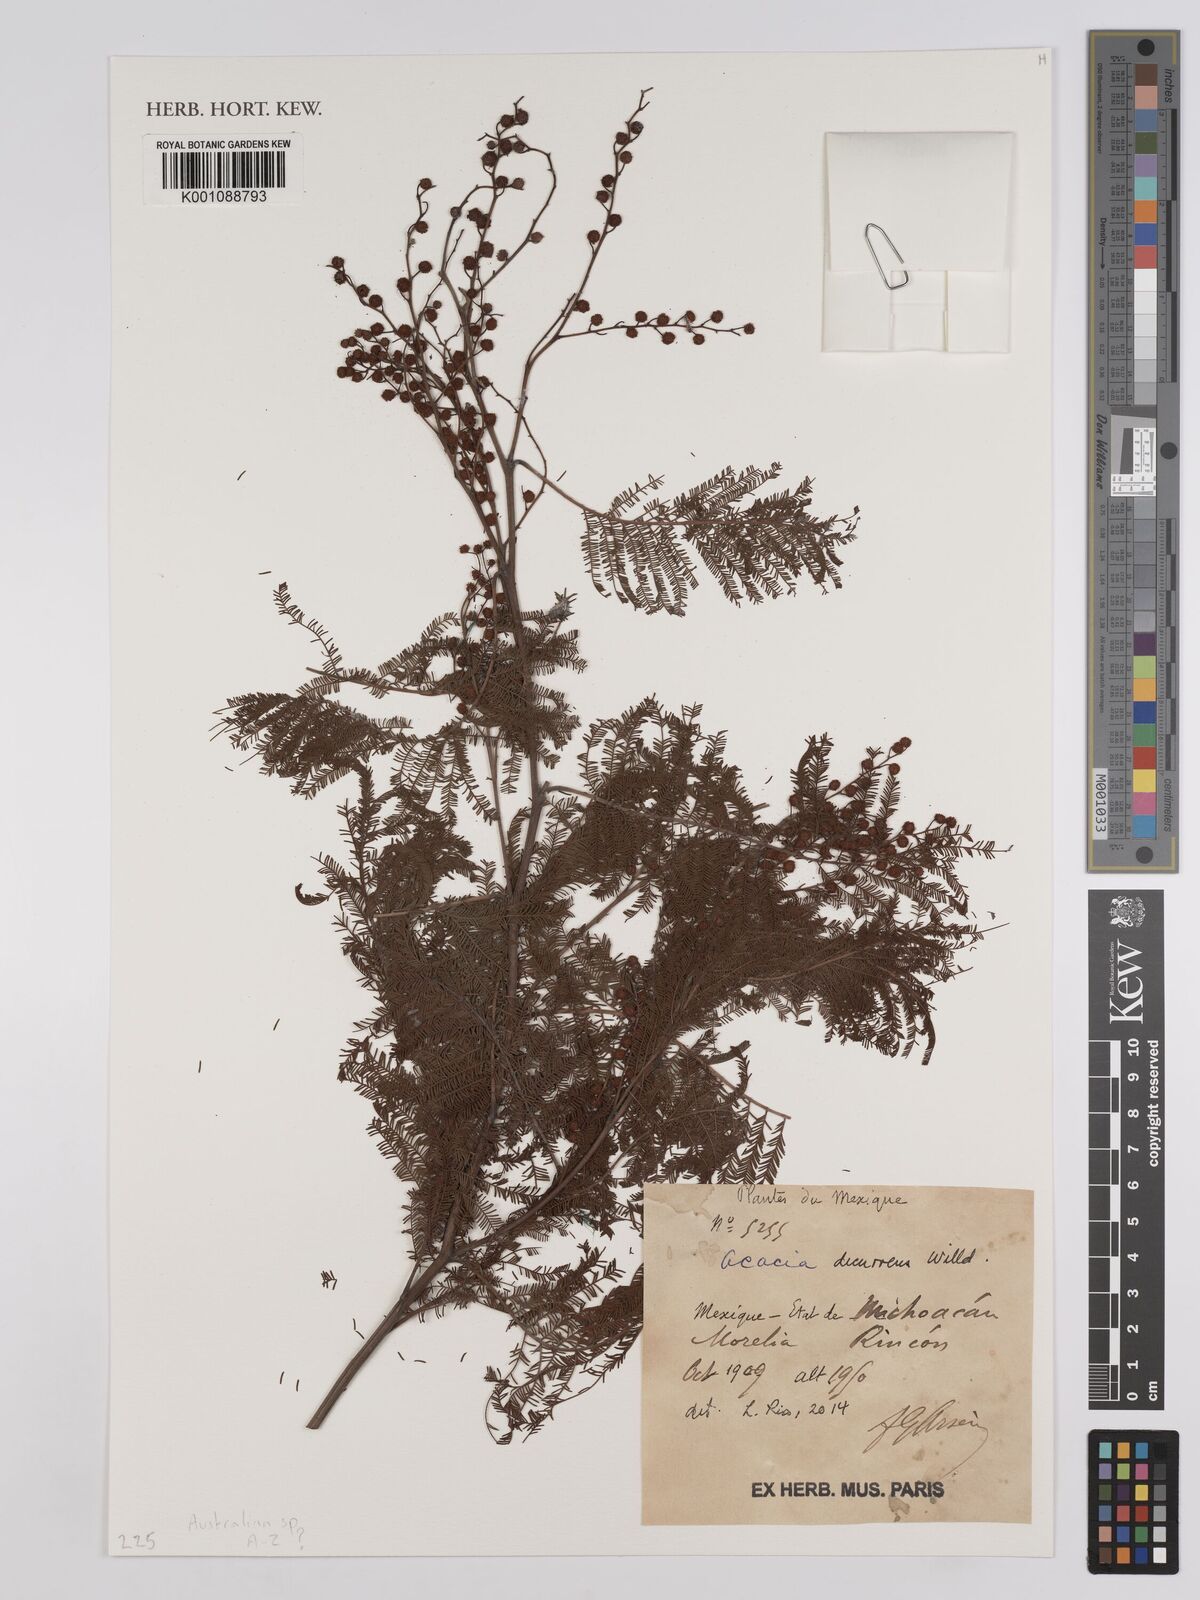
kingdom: Plantae
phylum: Tracheophyta
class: Magnoliopsida
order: Fabales
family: Fabaceae
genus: Acacia
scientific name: Acacia decurrens
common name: Green wattle
